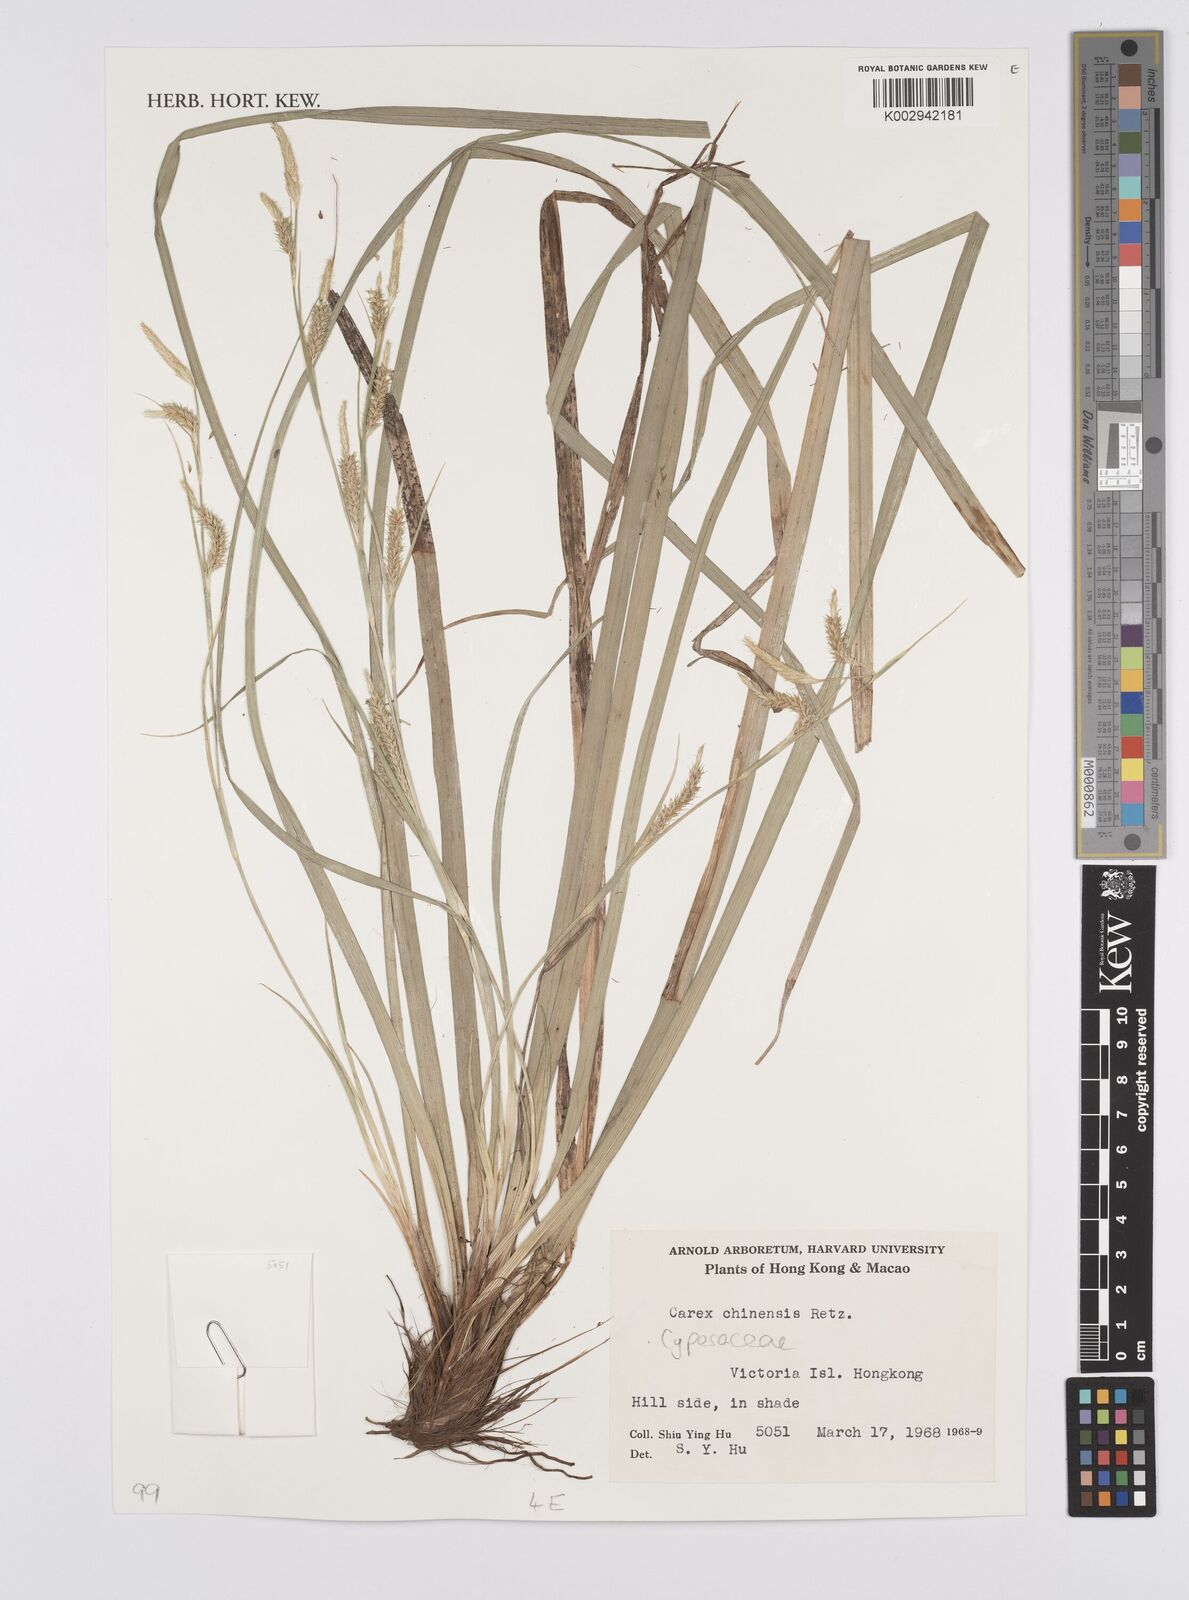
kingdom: Plantae
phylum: Tracheophyta
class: Liliopsida
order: Poales
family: Cyperaceae
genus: Carex
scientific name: Carex chinensis
